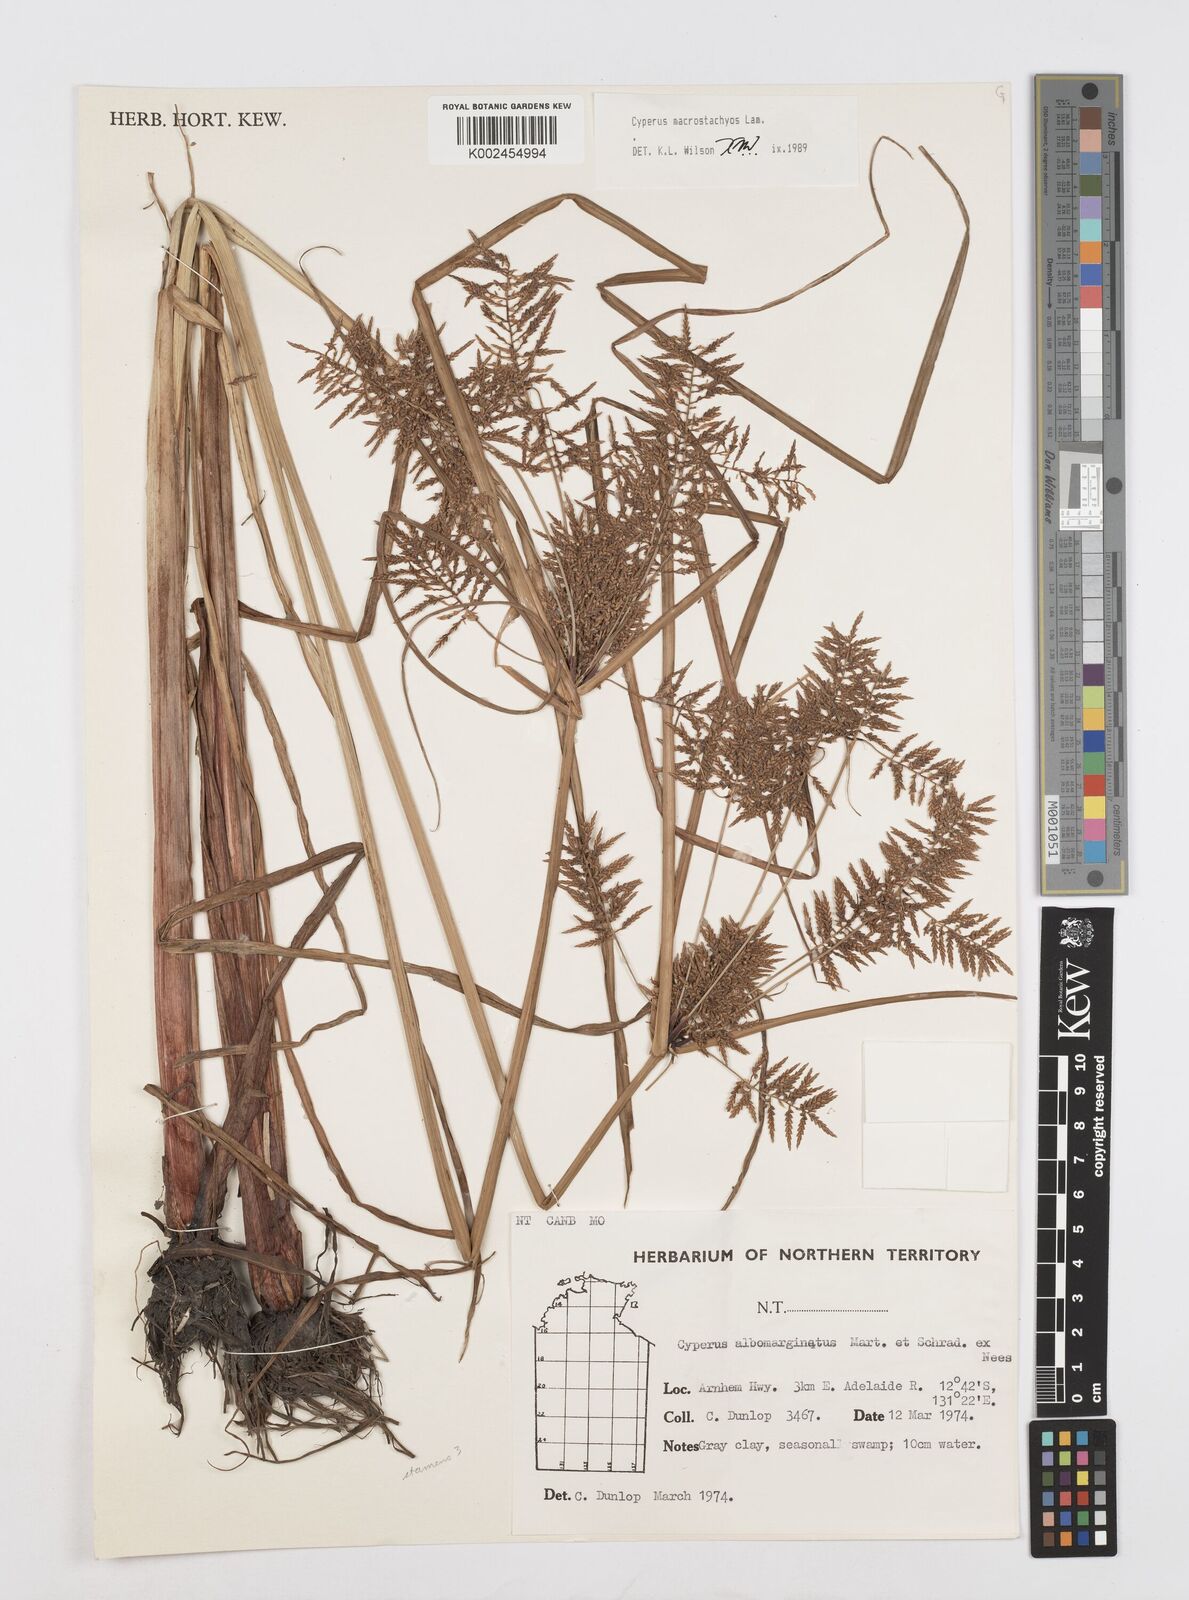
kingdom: Plantae
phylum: Tracheophyta
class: Liliopsida
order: Poales
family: Cyperaceae
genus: Cyperus
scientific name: Cyperus macrostachyos
